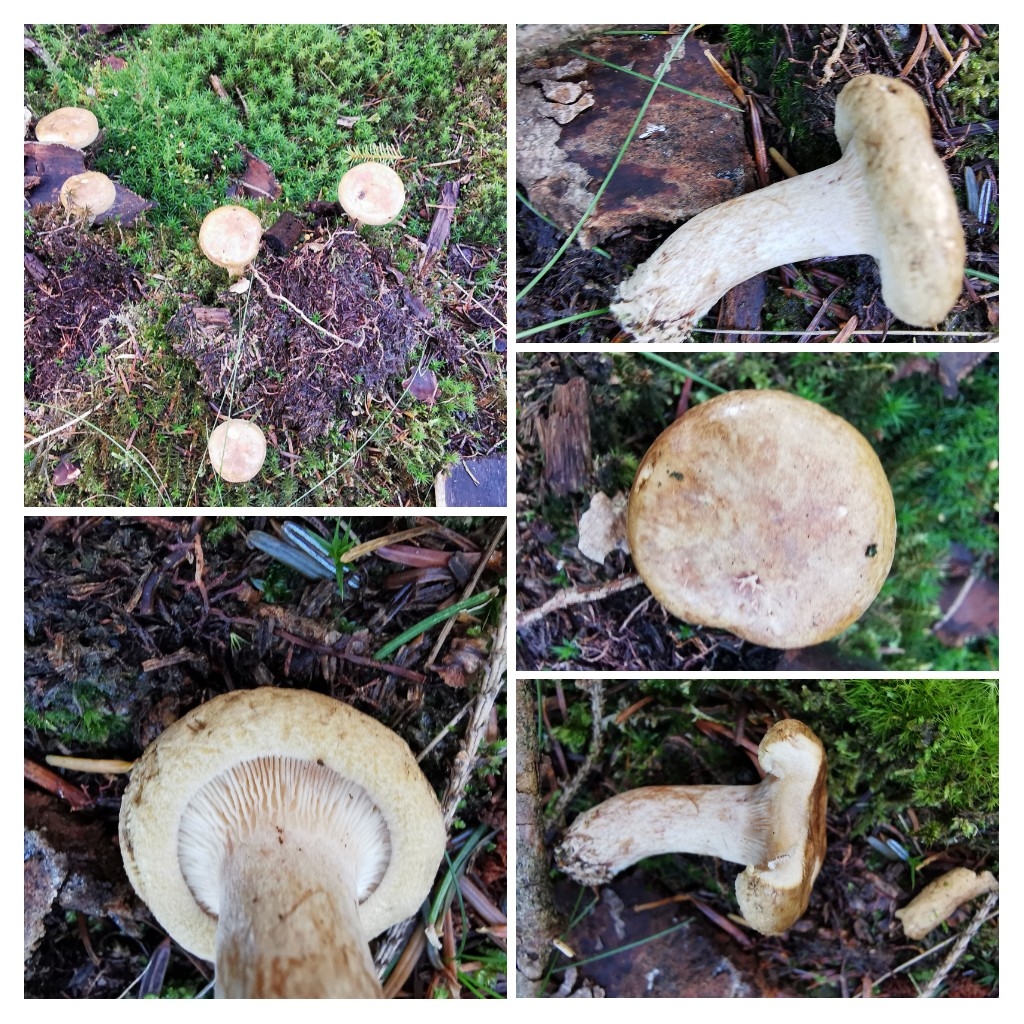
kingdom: Fungi
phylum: Basidiomycota
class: Agaricomycetes
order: Boletales
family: Paxillaceae
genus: Paxillus
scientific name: Paxillus involutus
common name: almindelig netbladhat
